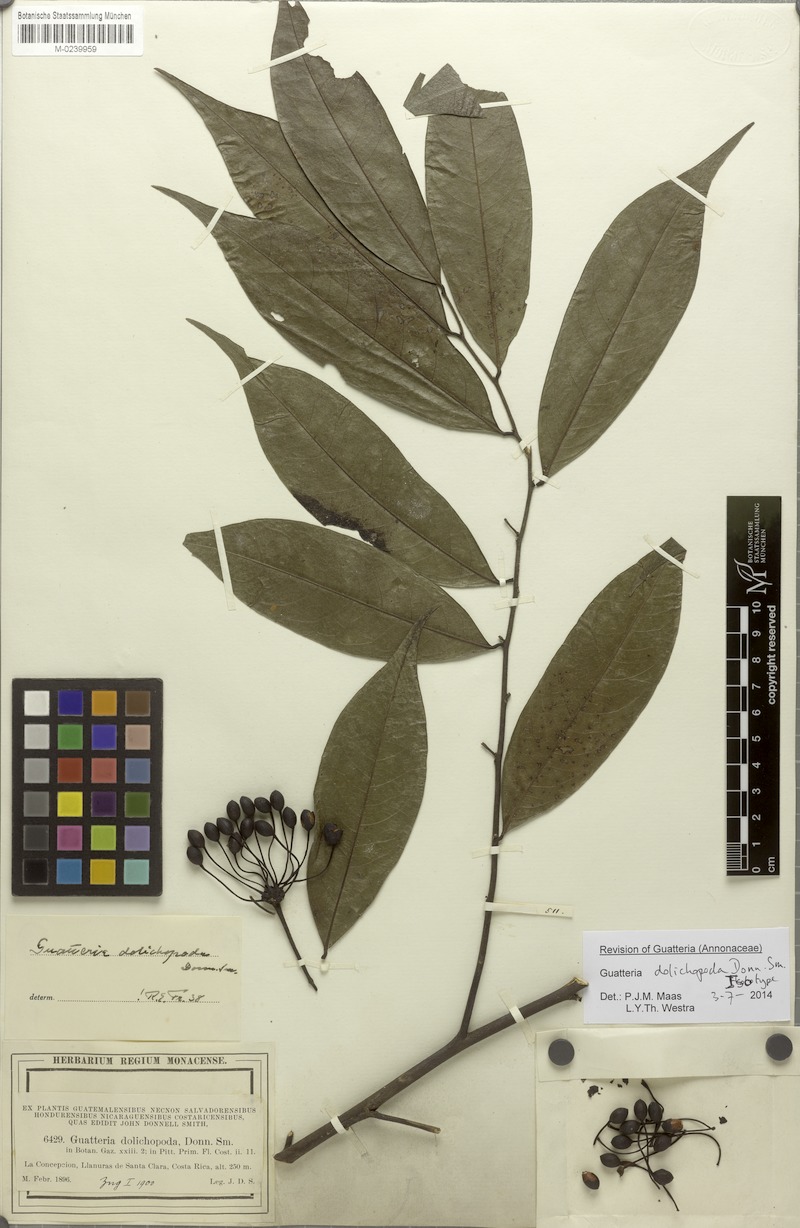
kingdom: Plantae
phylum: Tracheophyta
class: Magnoliopsida
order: Magnoliales
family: Annonaceae
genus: Guatteria
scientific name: Guatteria dolichopoda
